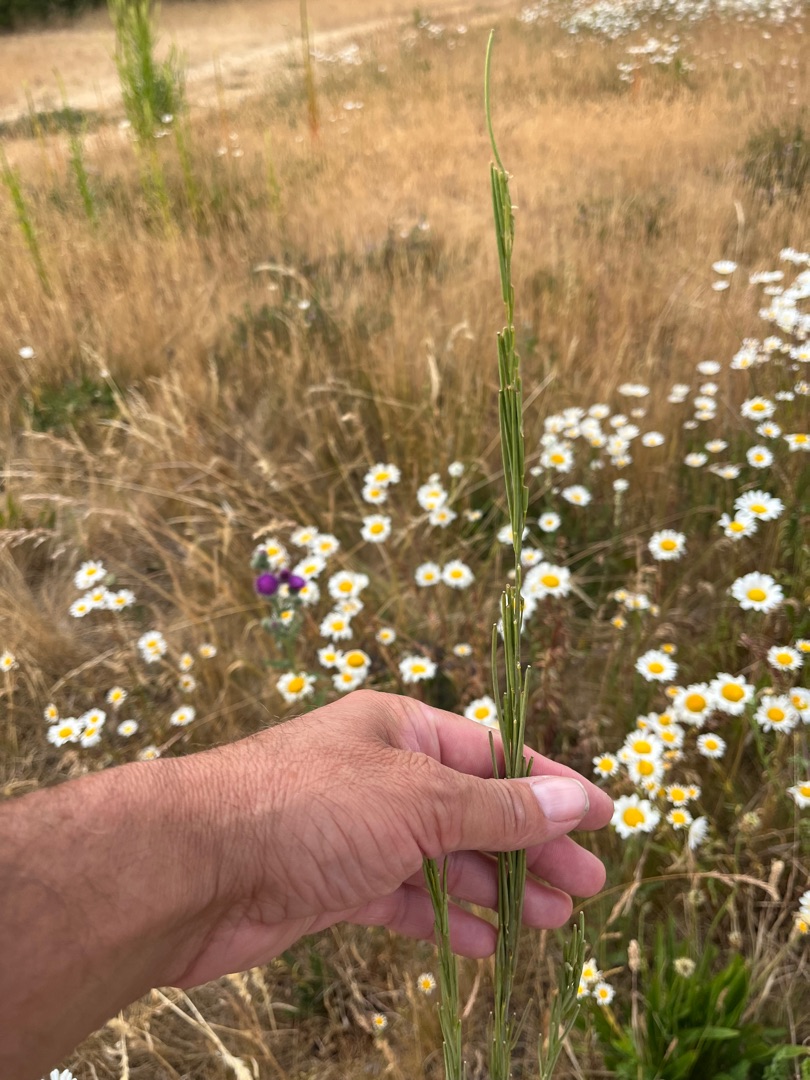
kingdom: Plantae
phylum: Tracheophyta
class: Magnoliopsida
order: Brassicales
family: Brassicaceae
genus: Turritis
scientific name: Turritis glabra
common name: Tårnurt
